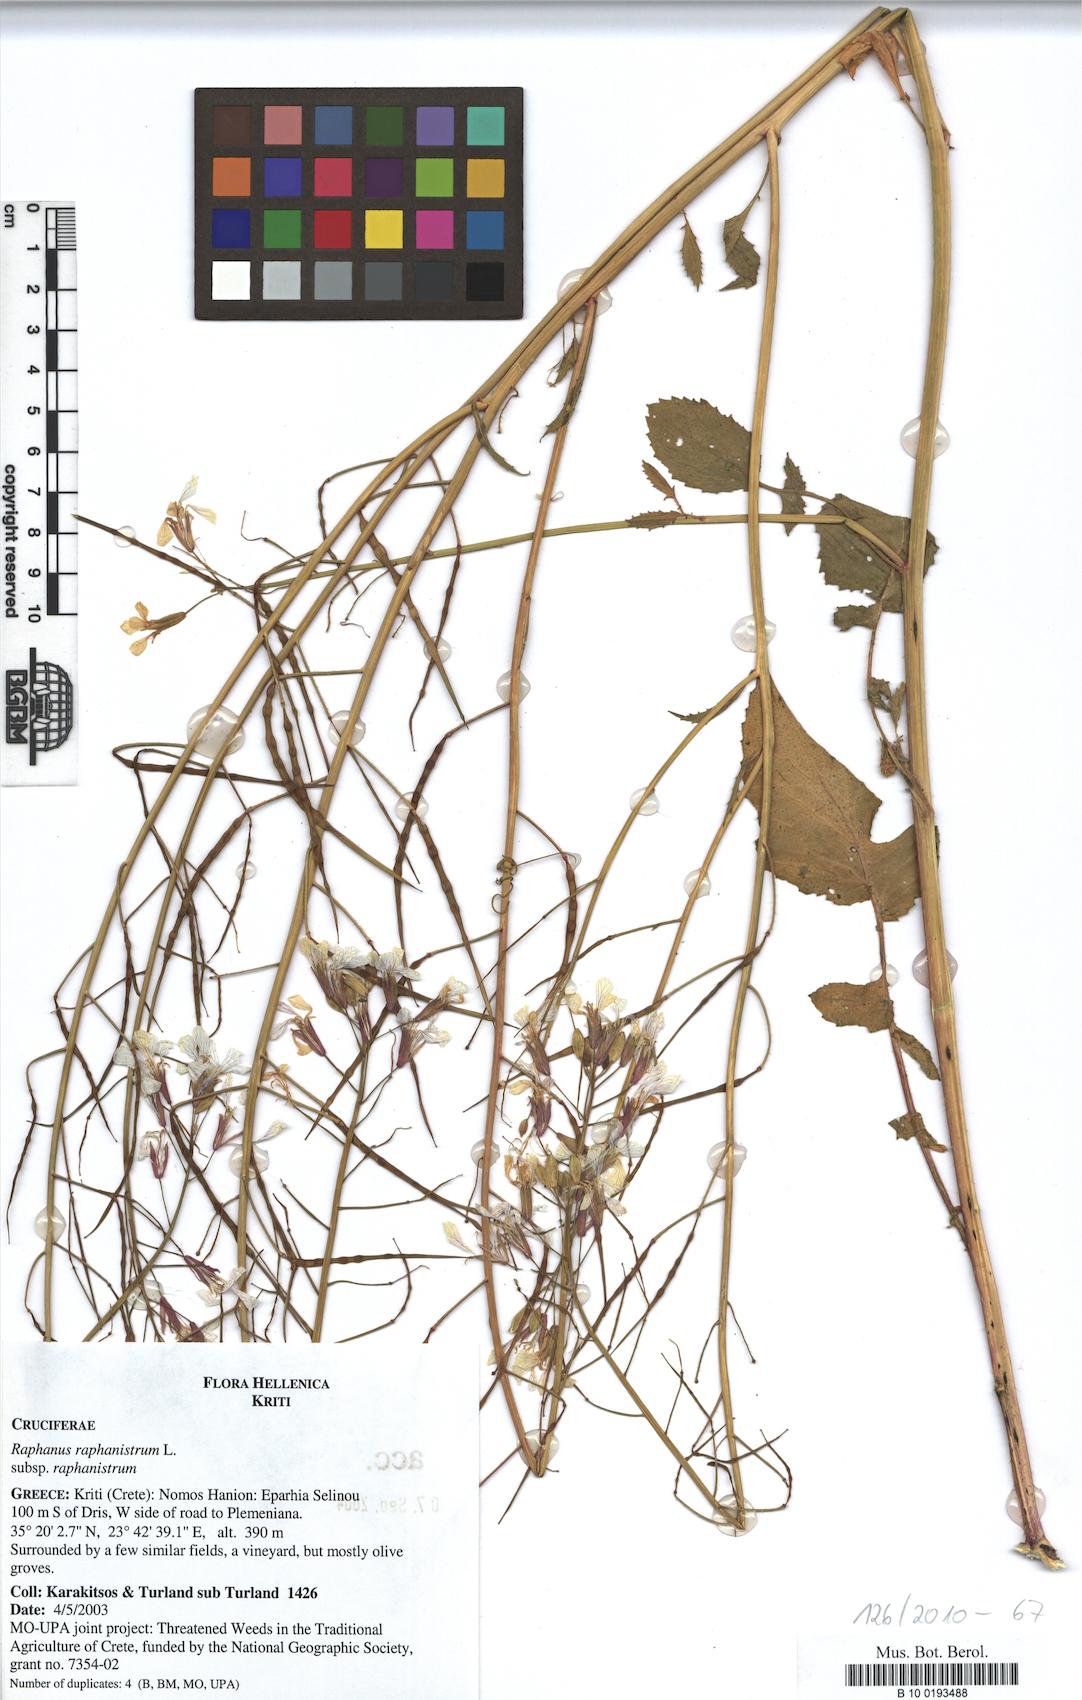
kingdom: Plantae
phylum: Tracheophyta
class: Magnoliopsida
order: Brassicales
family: Brassicaceae
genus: Raphanus
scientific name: Raphanus raphanistrum
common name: Wild radish
